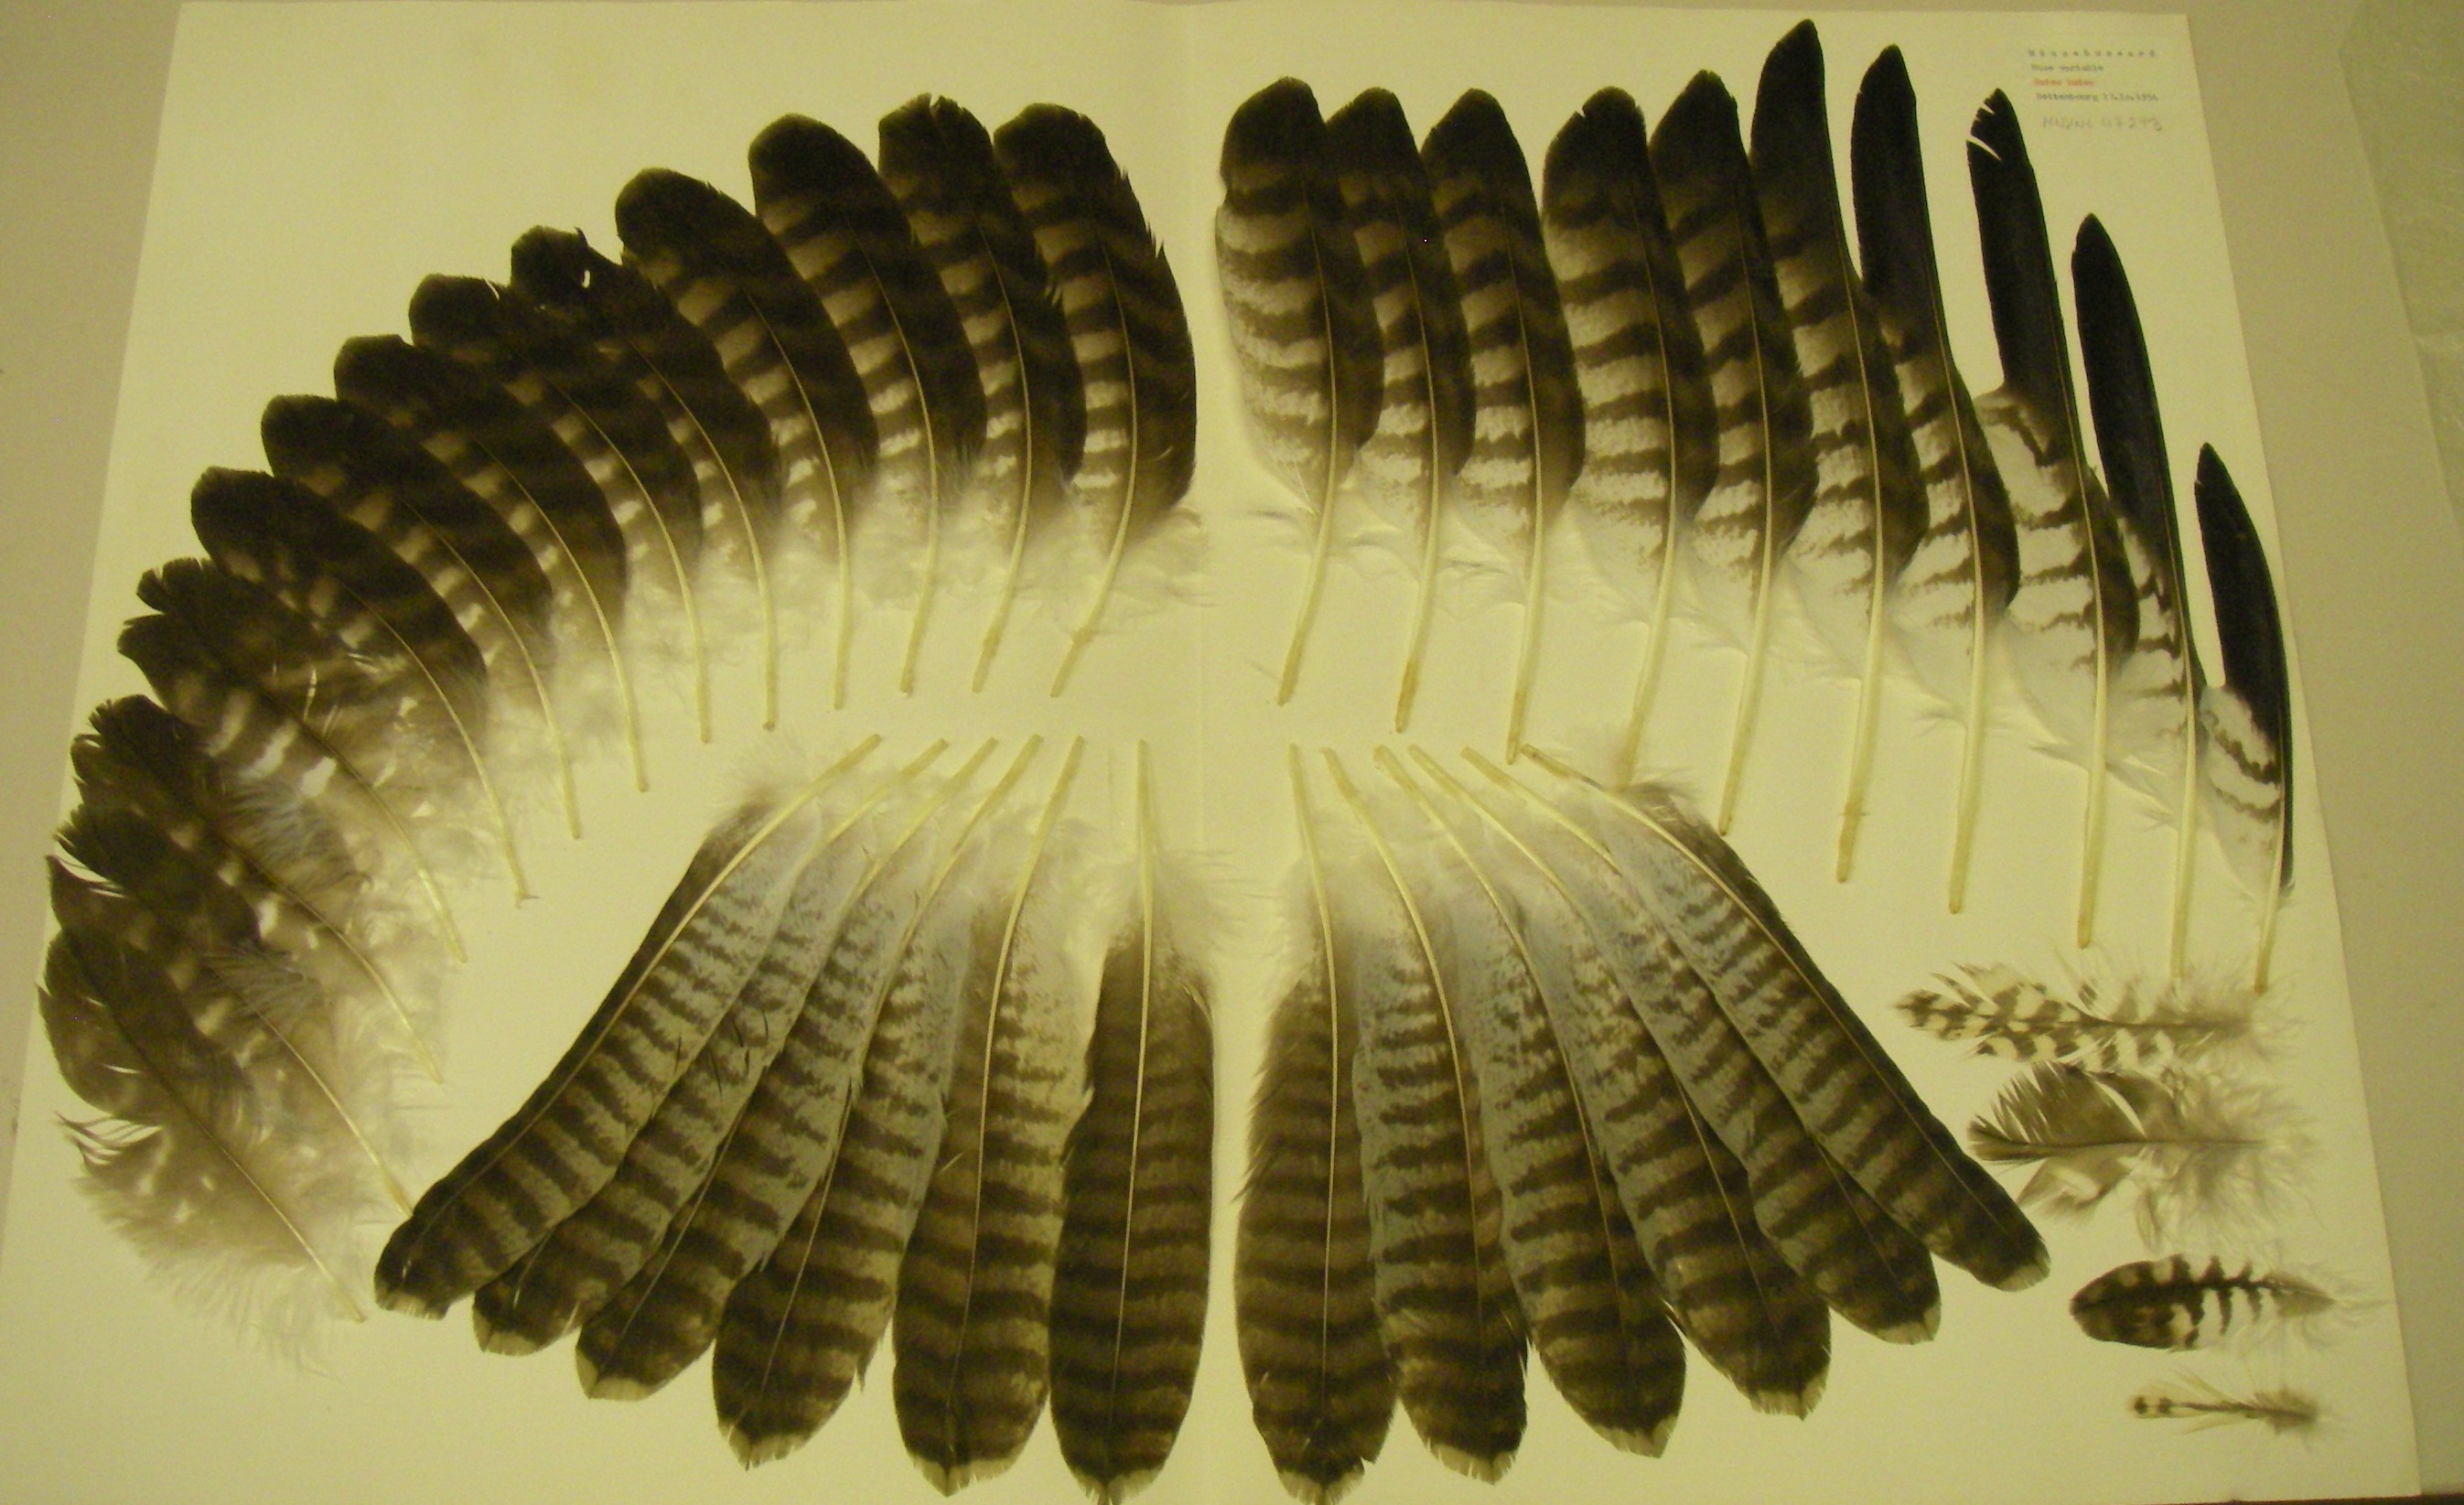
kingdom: Animalia
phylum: Chordata
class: Aves
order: Accipitriformes
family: Accipitridae
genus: Buteo
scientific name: Buteo buteo
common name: Common buzzard
